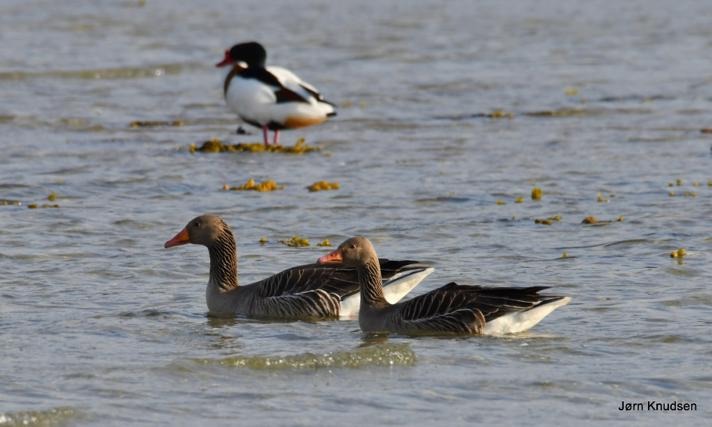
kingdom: Animalia
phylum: Chordata
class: Aves
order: Anseriformes
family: Anatidae
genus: Anser
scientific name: Anser anser
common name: Grågås
